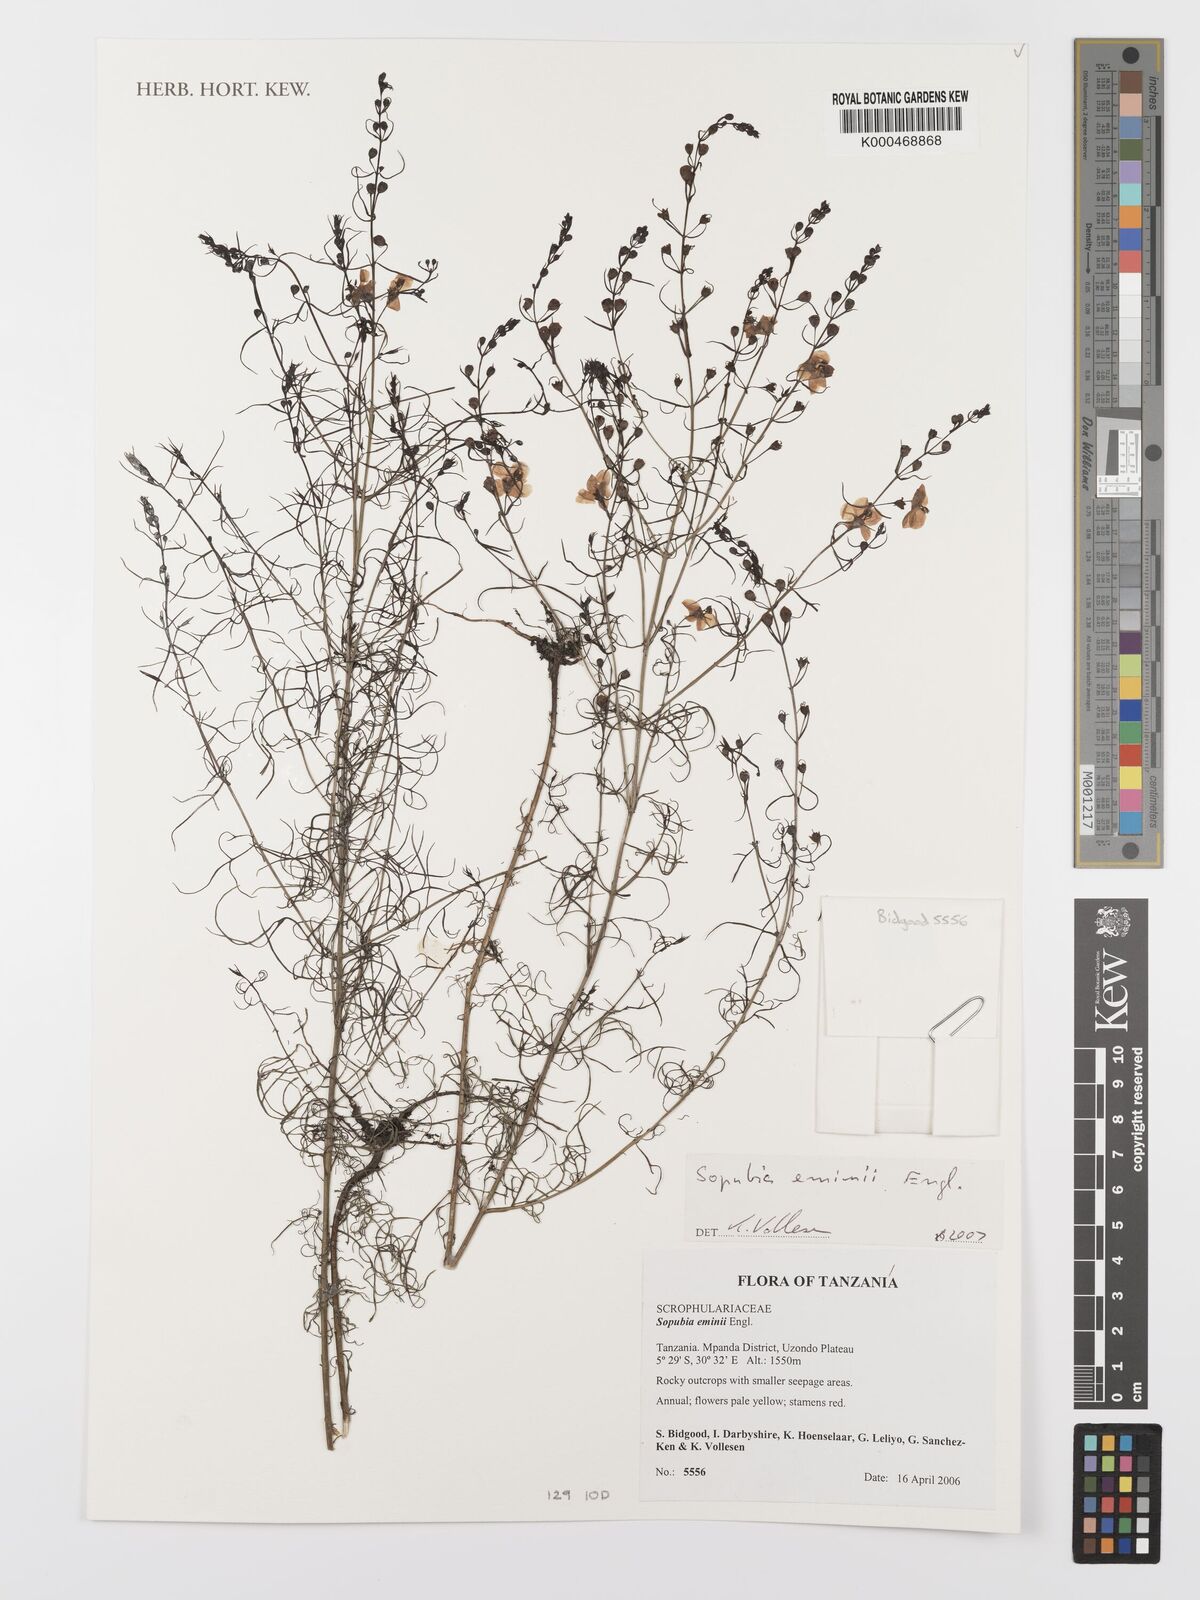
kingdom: Plantae
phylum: Tracheophyta
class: Magnoliopsida
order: Lamiales
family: Orobanchaceae
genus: Sopubia
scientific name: Sopubia eminii
